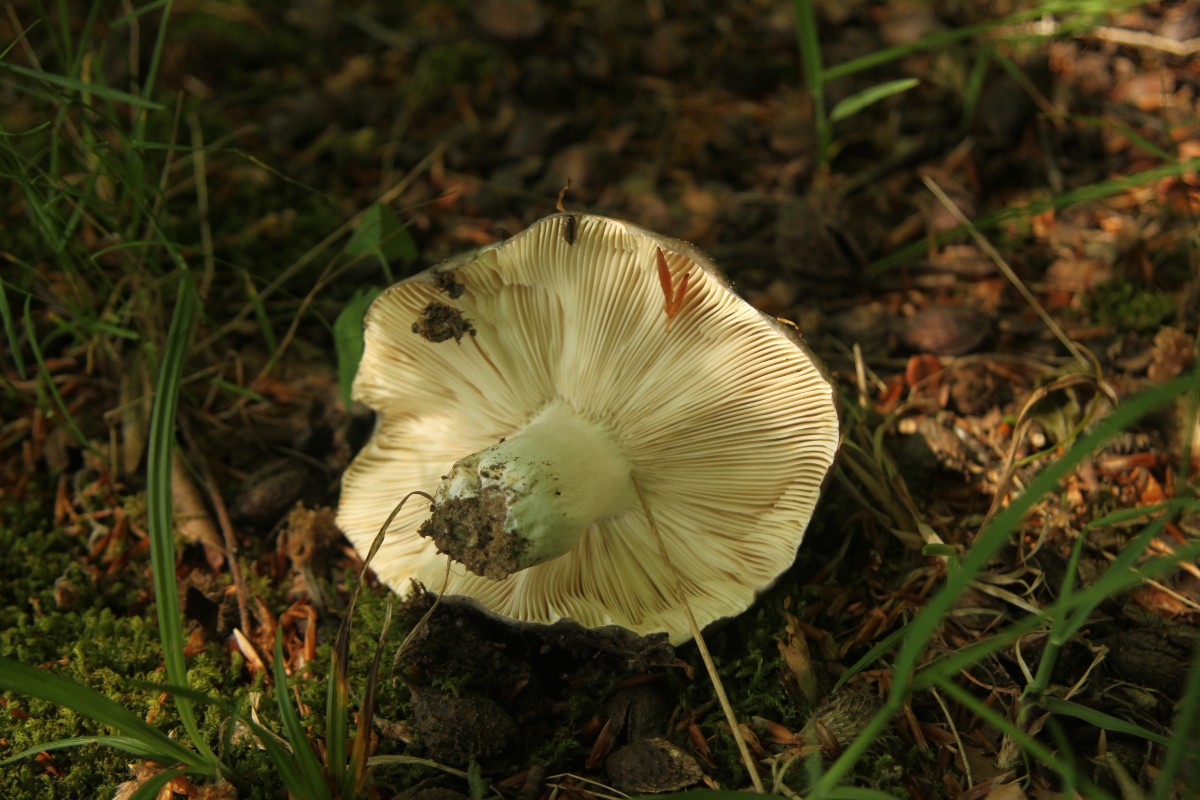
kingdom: Fungi
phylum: Basidiomycota
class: Agaricomycetes
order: Russulales
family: Russulaceae
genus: Russula
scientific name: Russula
